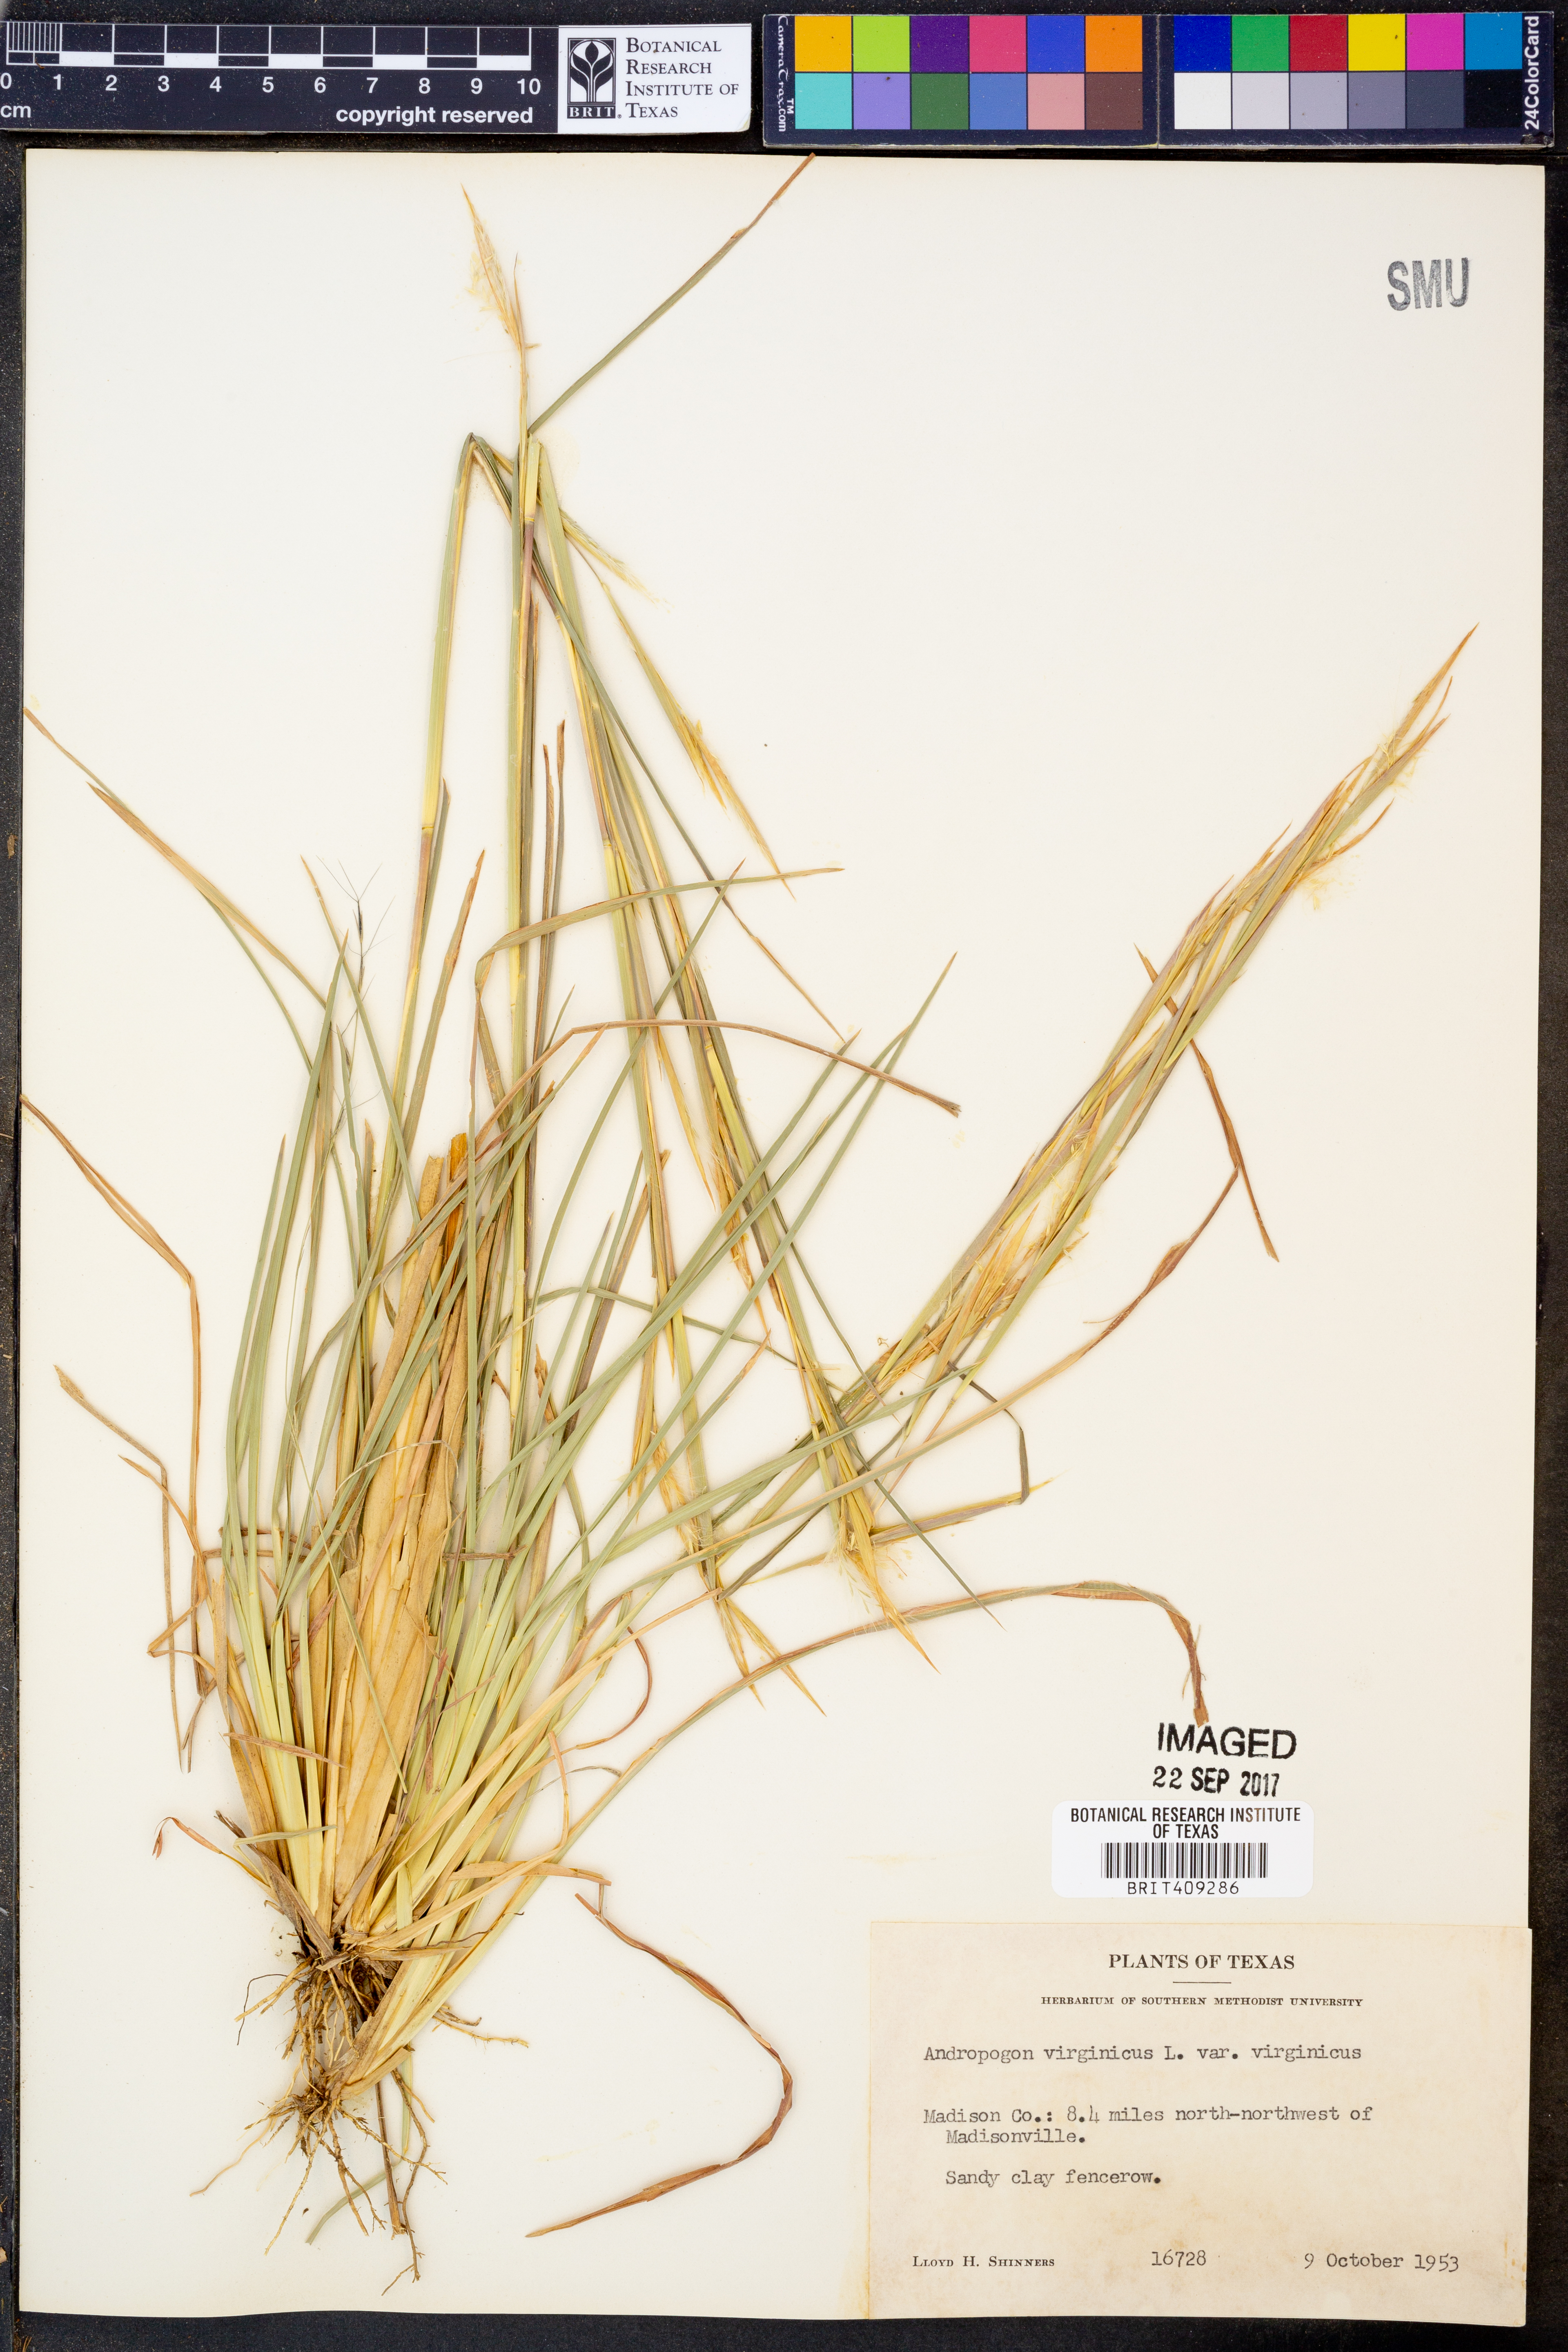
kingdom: Plantae
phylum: Tracheophyta
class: Liliopsida
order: Poales
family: Poaceae
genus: Andropogon
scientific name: Andropogon virginicus
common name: Broomsedge bluestem
